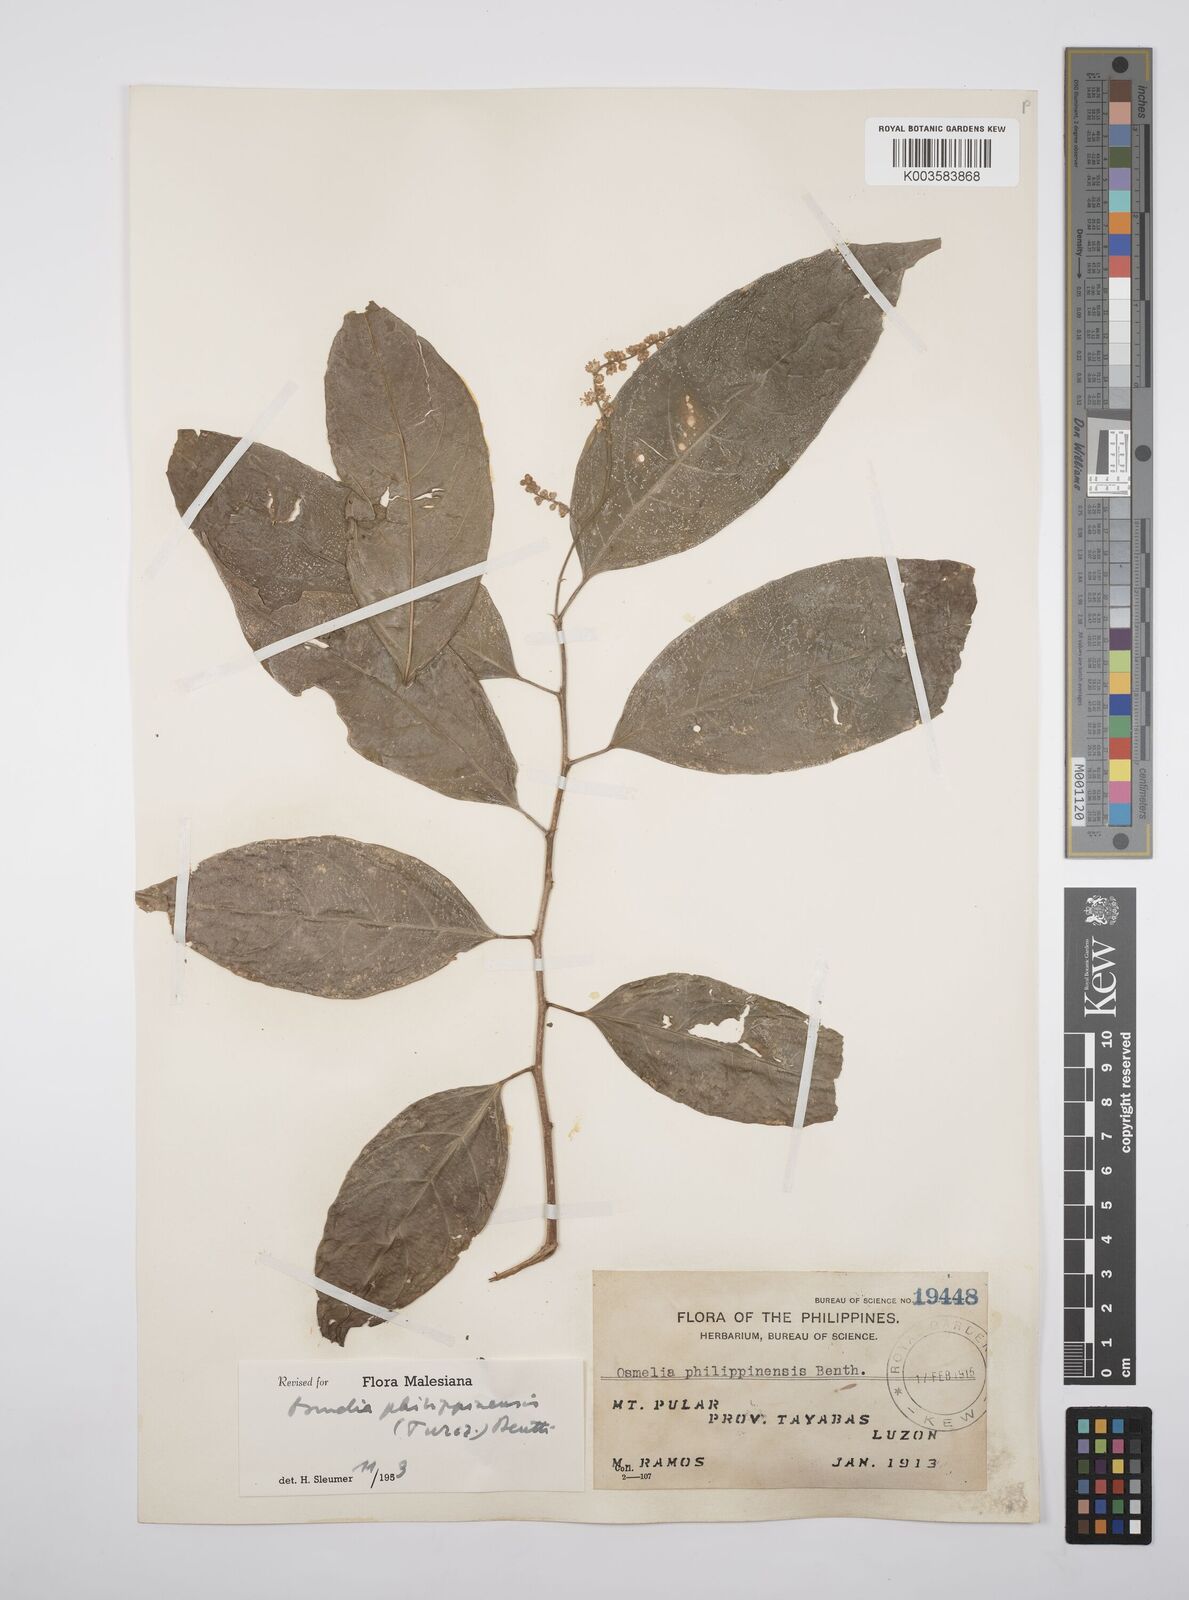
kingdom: Plantae
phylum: Tracheophyta
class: Magnoliopsida
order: Malpighiales
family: Salicaceae
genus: Osmelia
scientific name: Osmelia philippina
